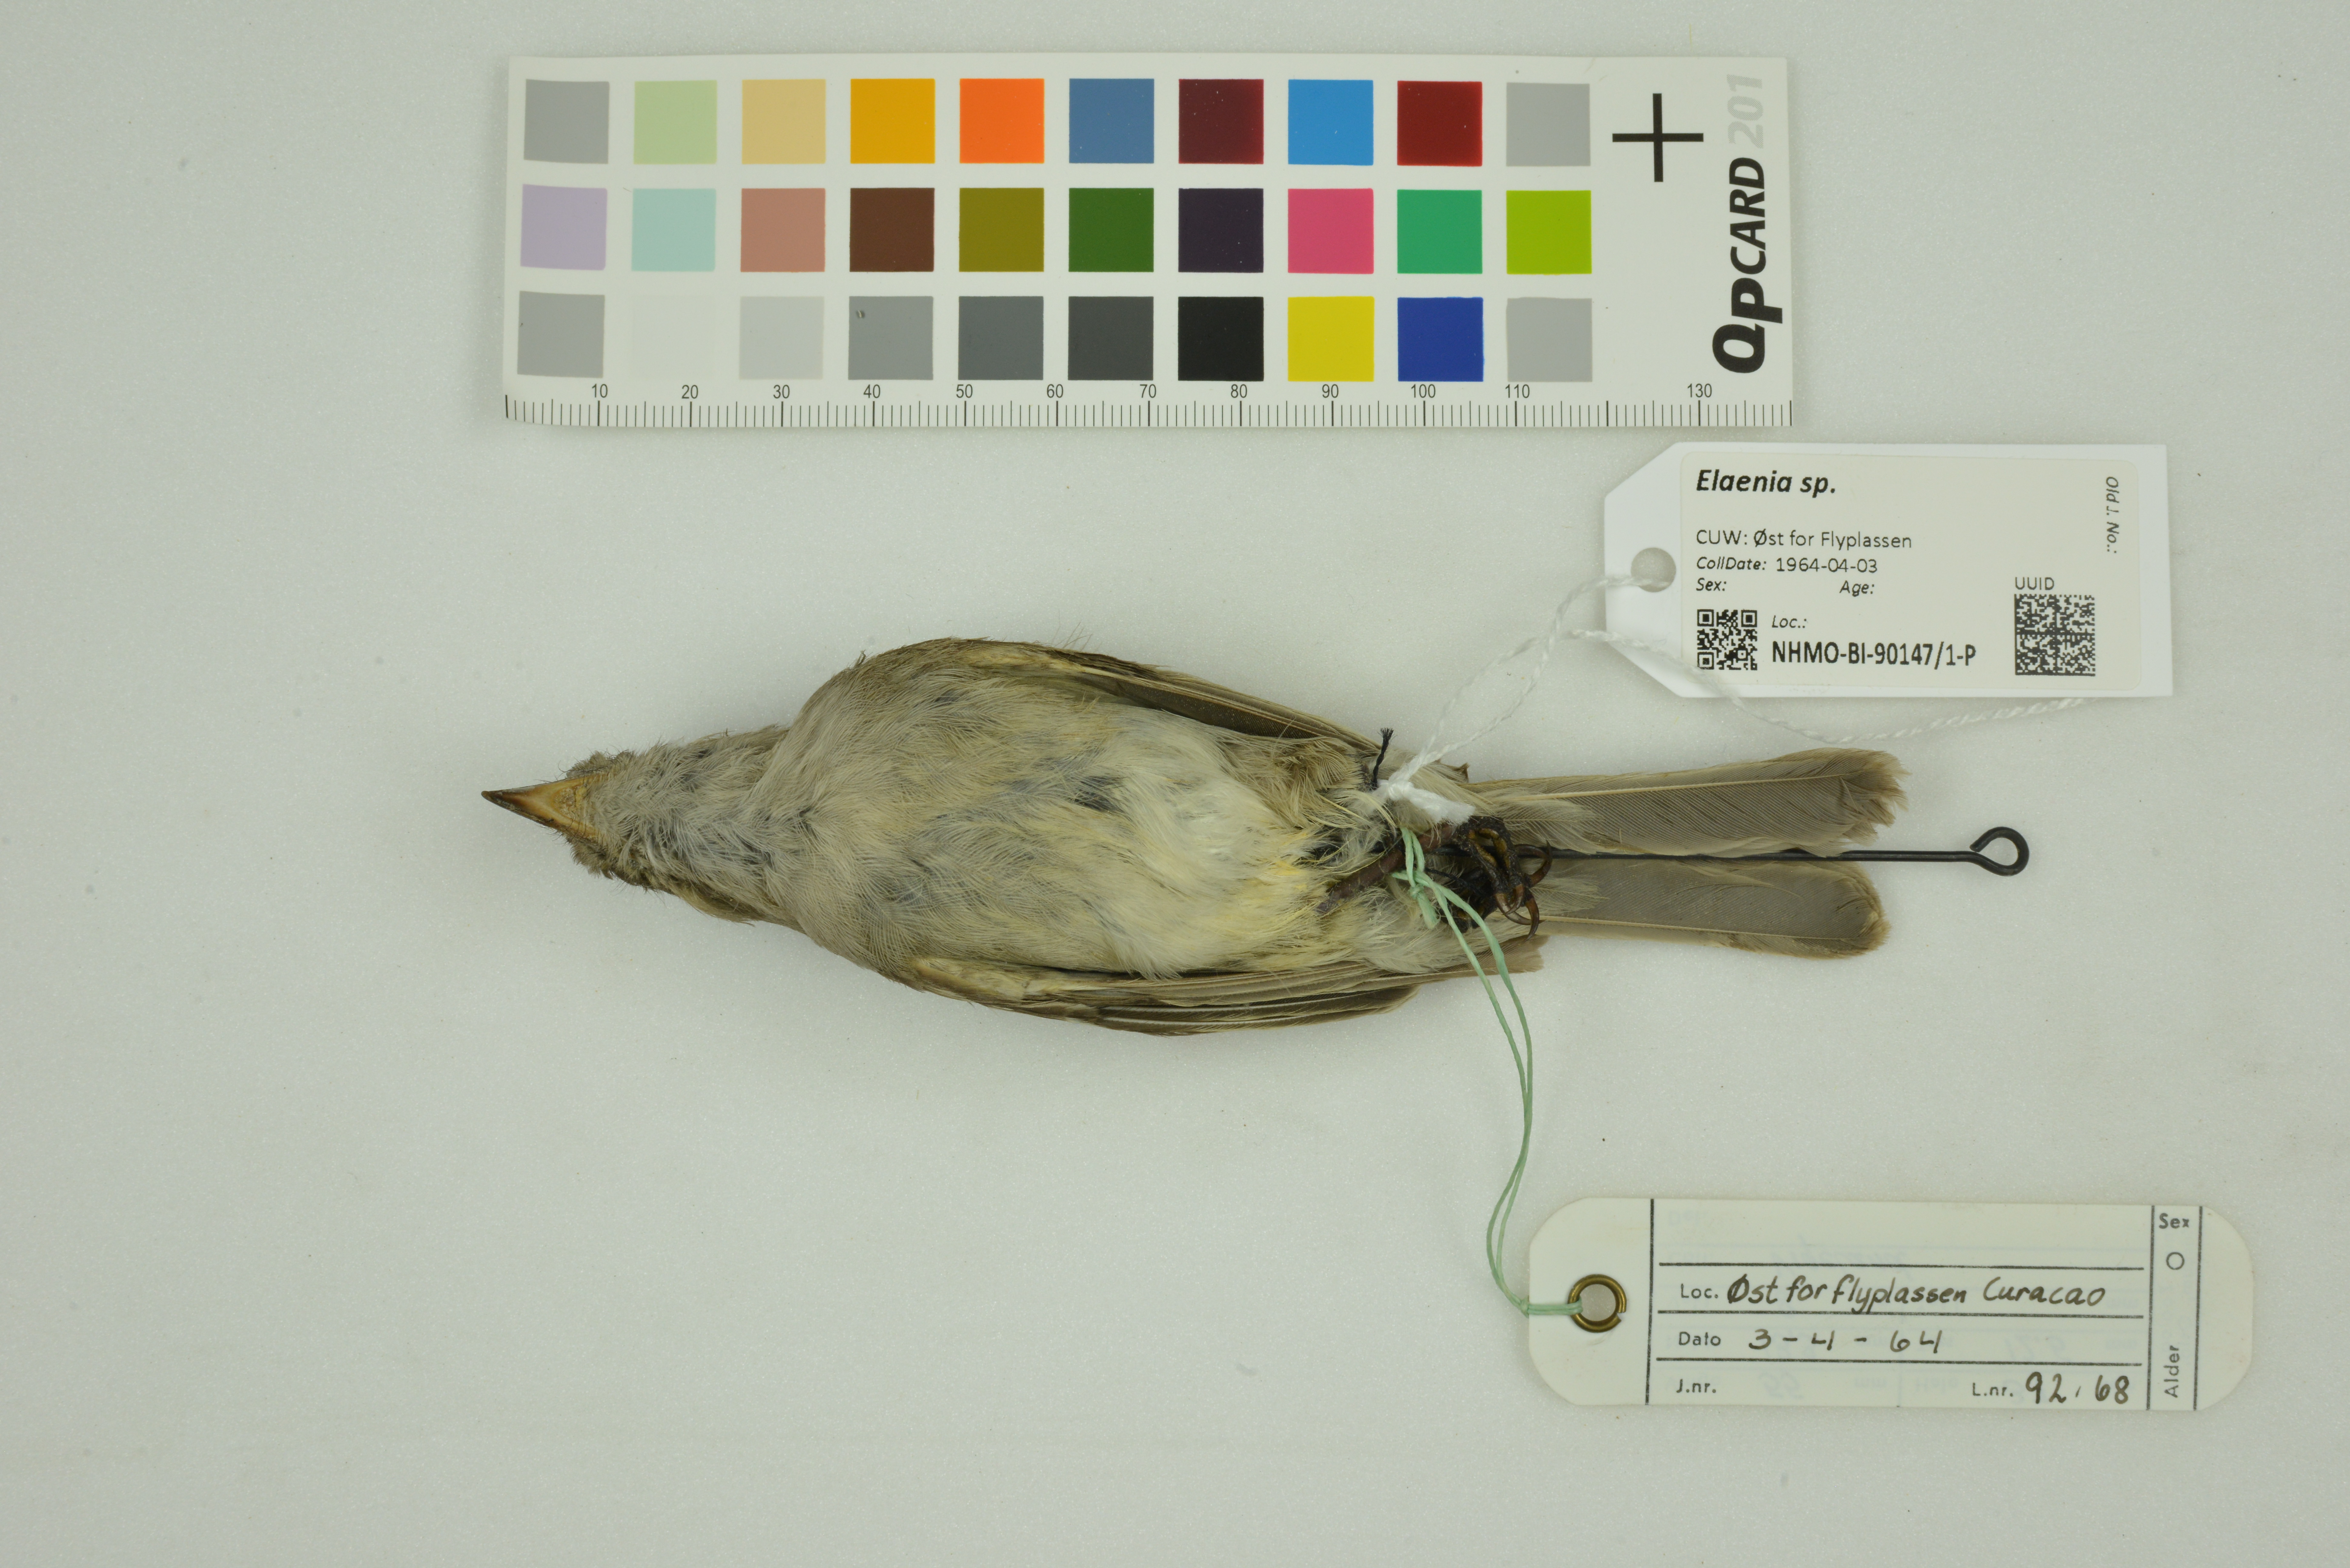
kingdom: Animalia
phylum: Chordata
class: Aves
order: Passeriformes
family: Tyrannidae
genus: Elaenia
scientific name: Elaenia
